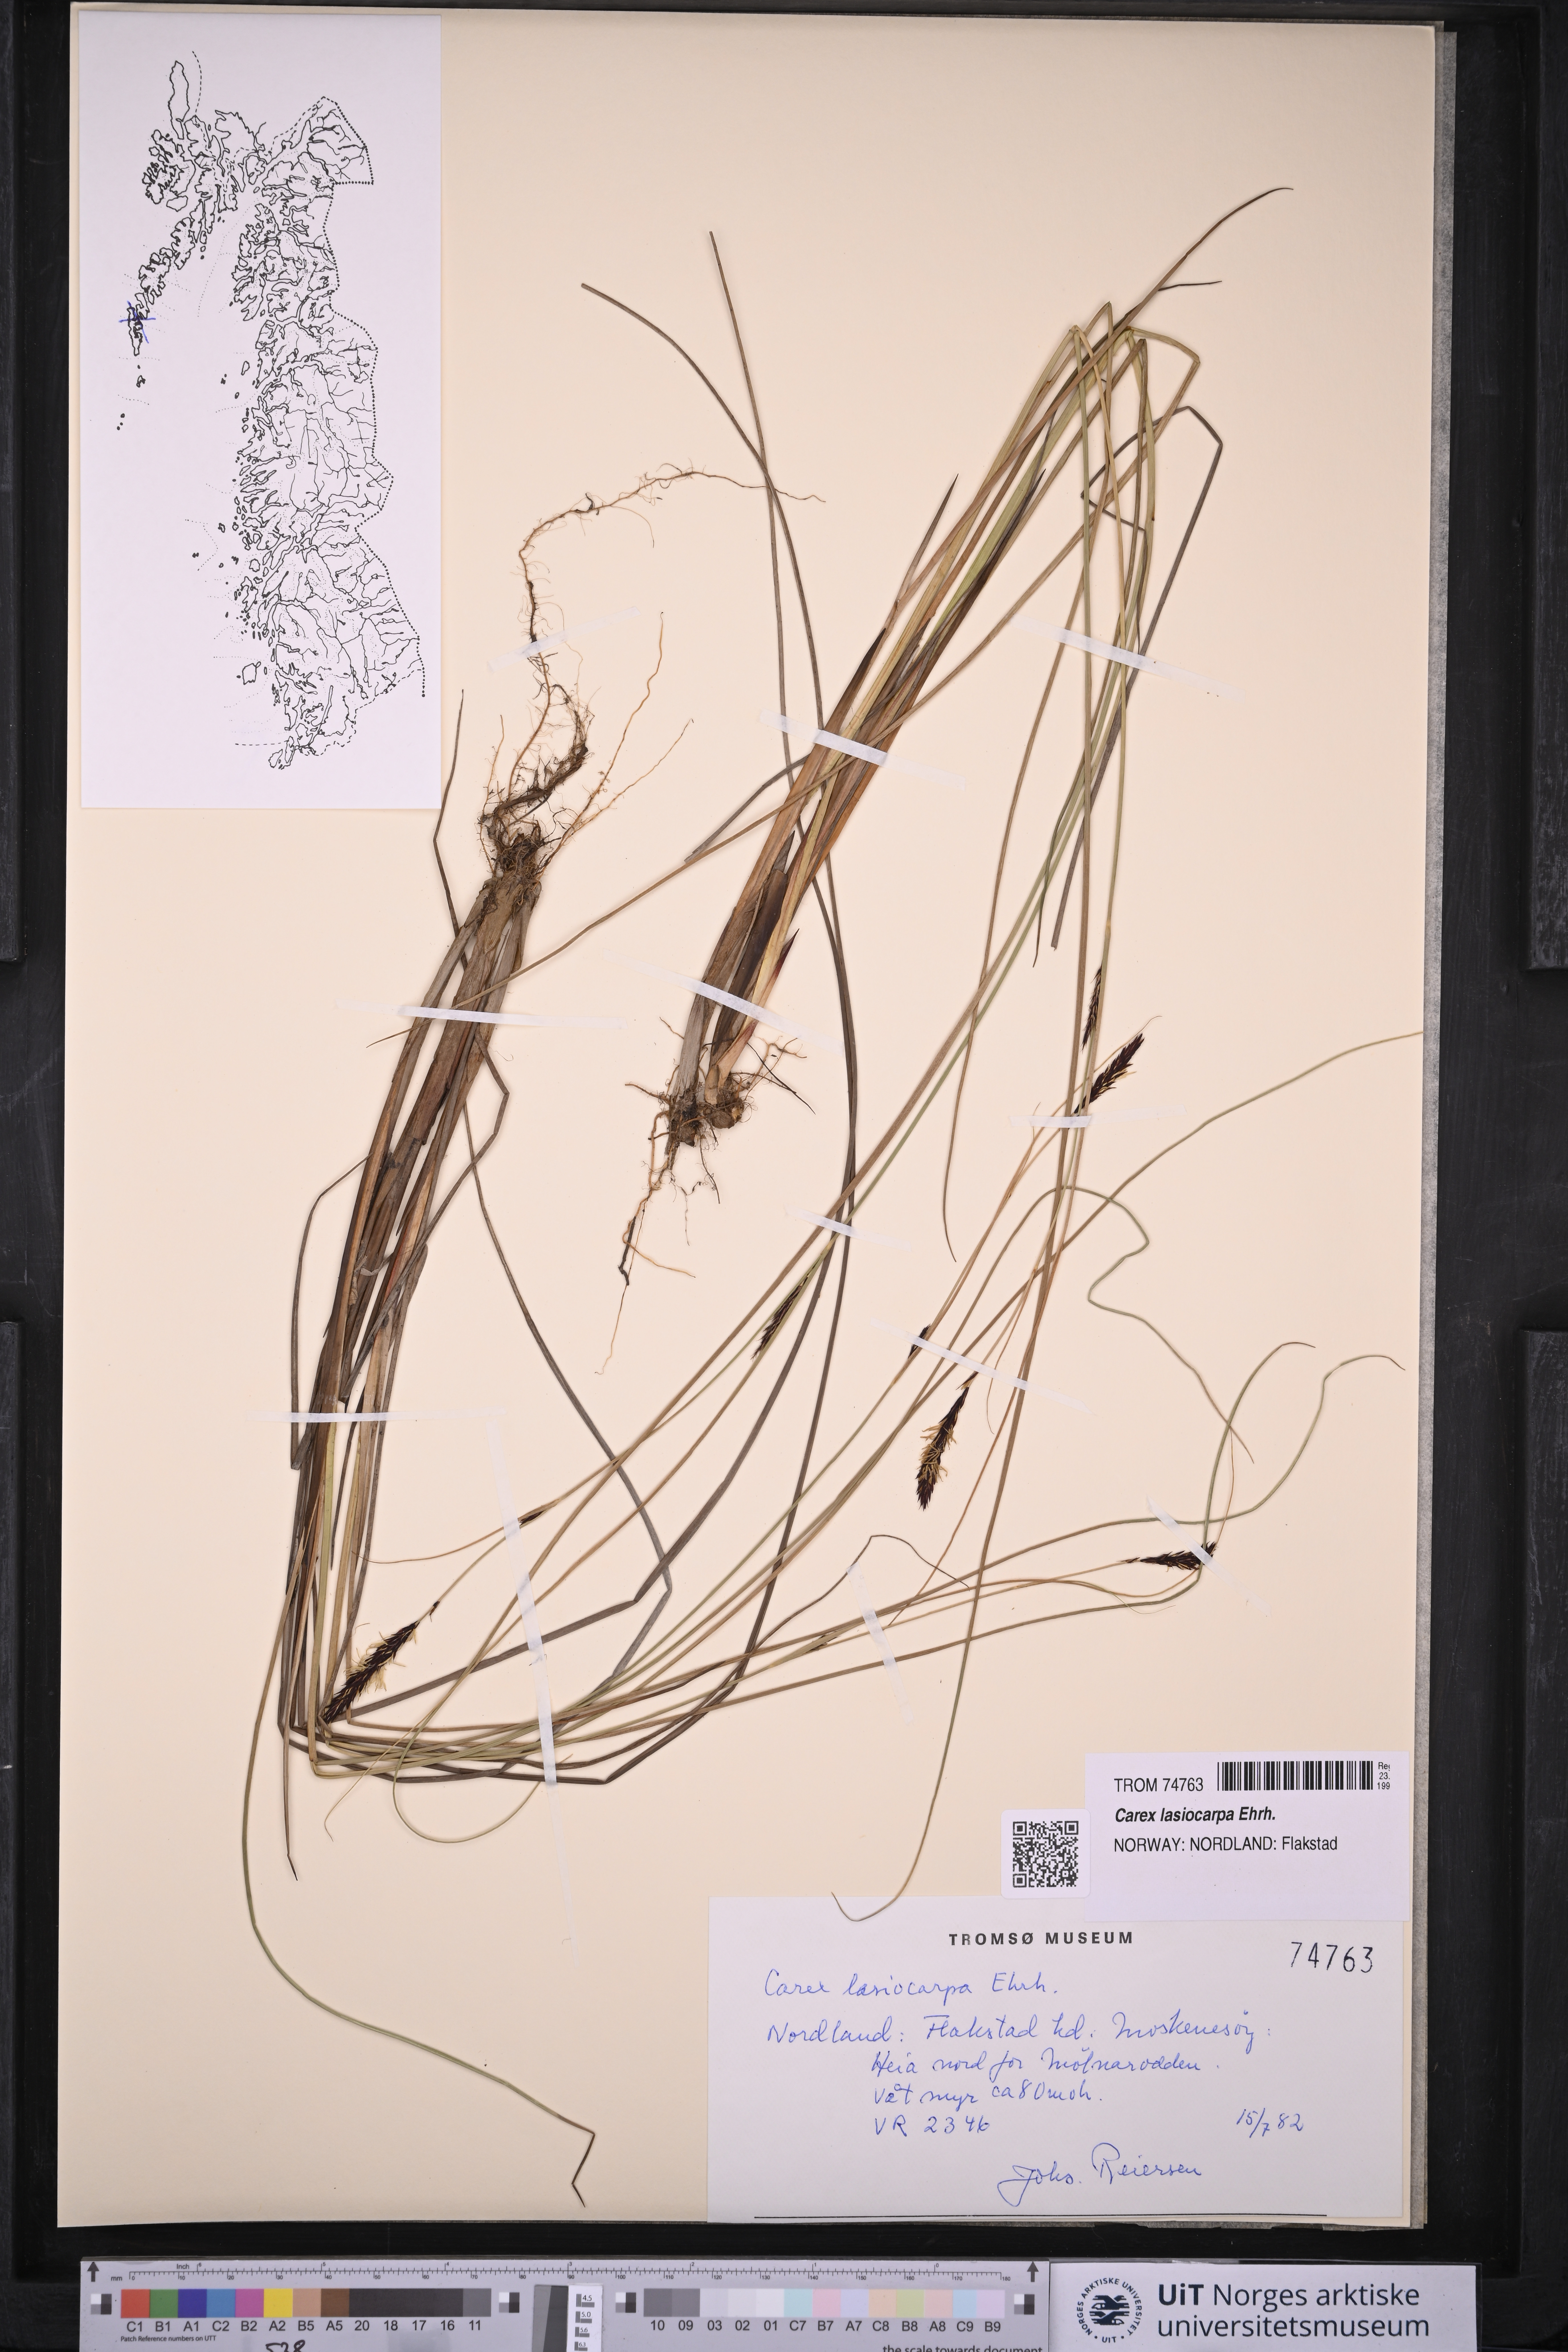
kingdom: Plantae
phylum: Tracheophyta
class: Liliopsida
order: Poales
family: Cyperaceae
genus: Carex
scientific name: Carex lasiocarpa
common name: Slender sedge
